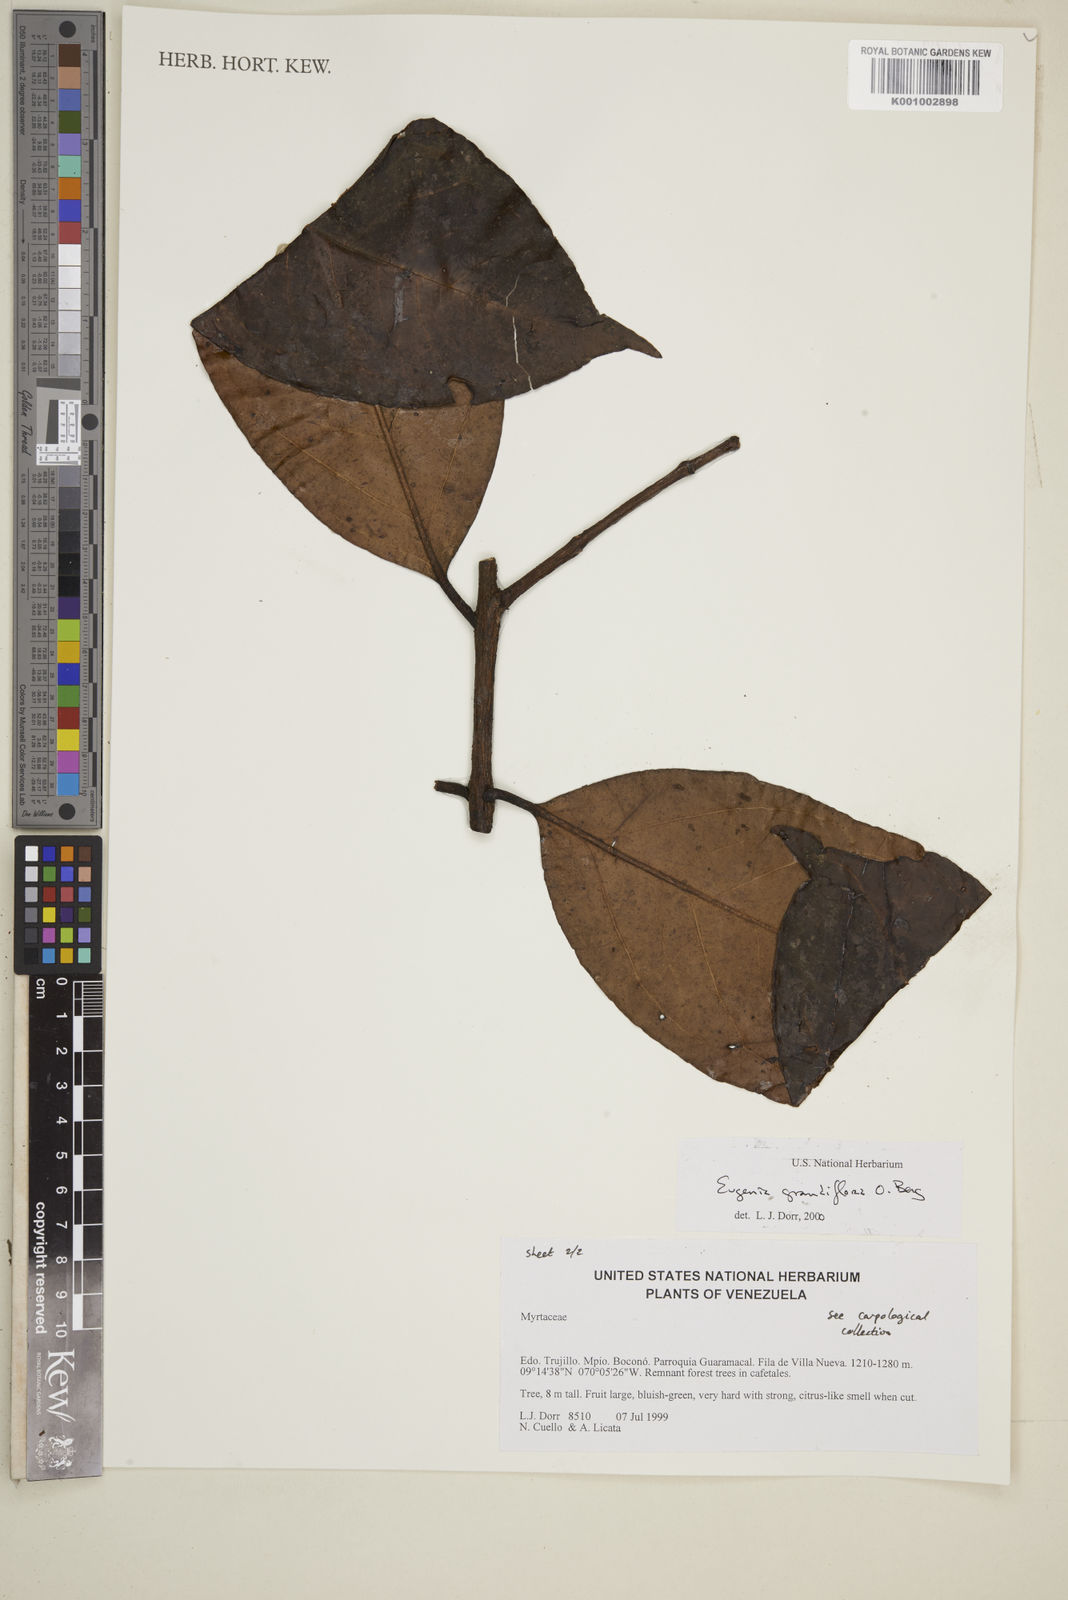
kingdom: Plantae
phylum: Tracheophyta
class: Magnoliopsida
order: Myrtales
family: Myrtaceae
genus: Eugenia
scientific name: Eugenia grandiflora
